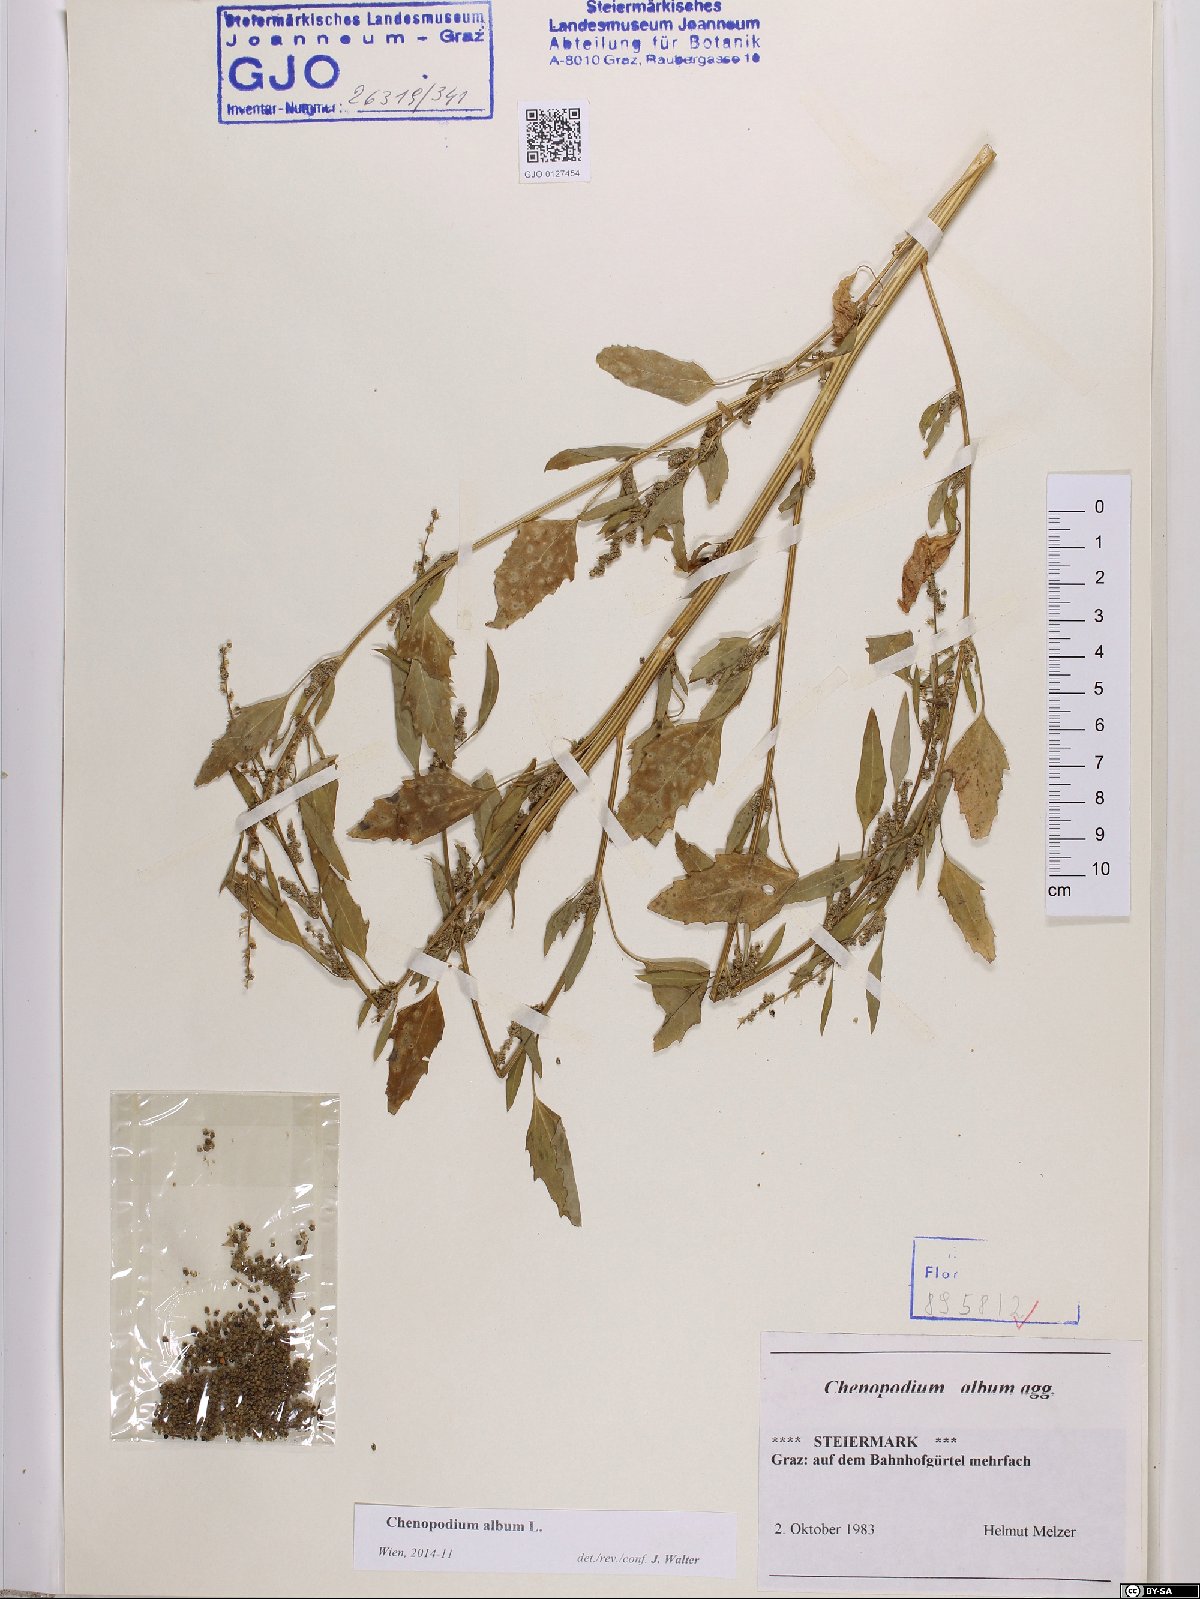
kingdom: Plantae
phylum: Tracheophyta
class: Magnoliopsida
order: Caryophyllales
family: Amaranthaceae
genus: Chenopodium
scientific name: Chenopodium album
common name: Fat-hen
